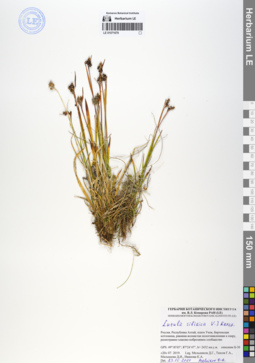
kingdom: Plantae
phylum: Tracheophyta
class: Liliopsida
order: Poales
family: Juncaceae
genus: Luzula
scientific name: Luzula multiflora
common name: Heath wood-rush
